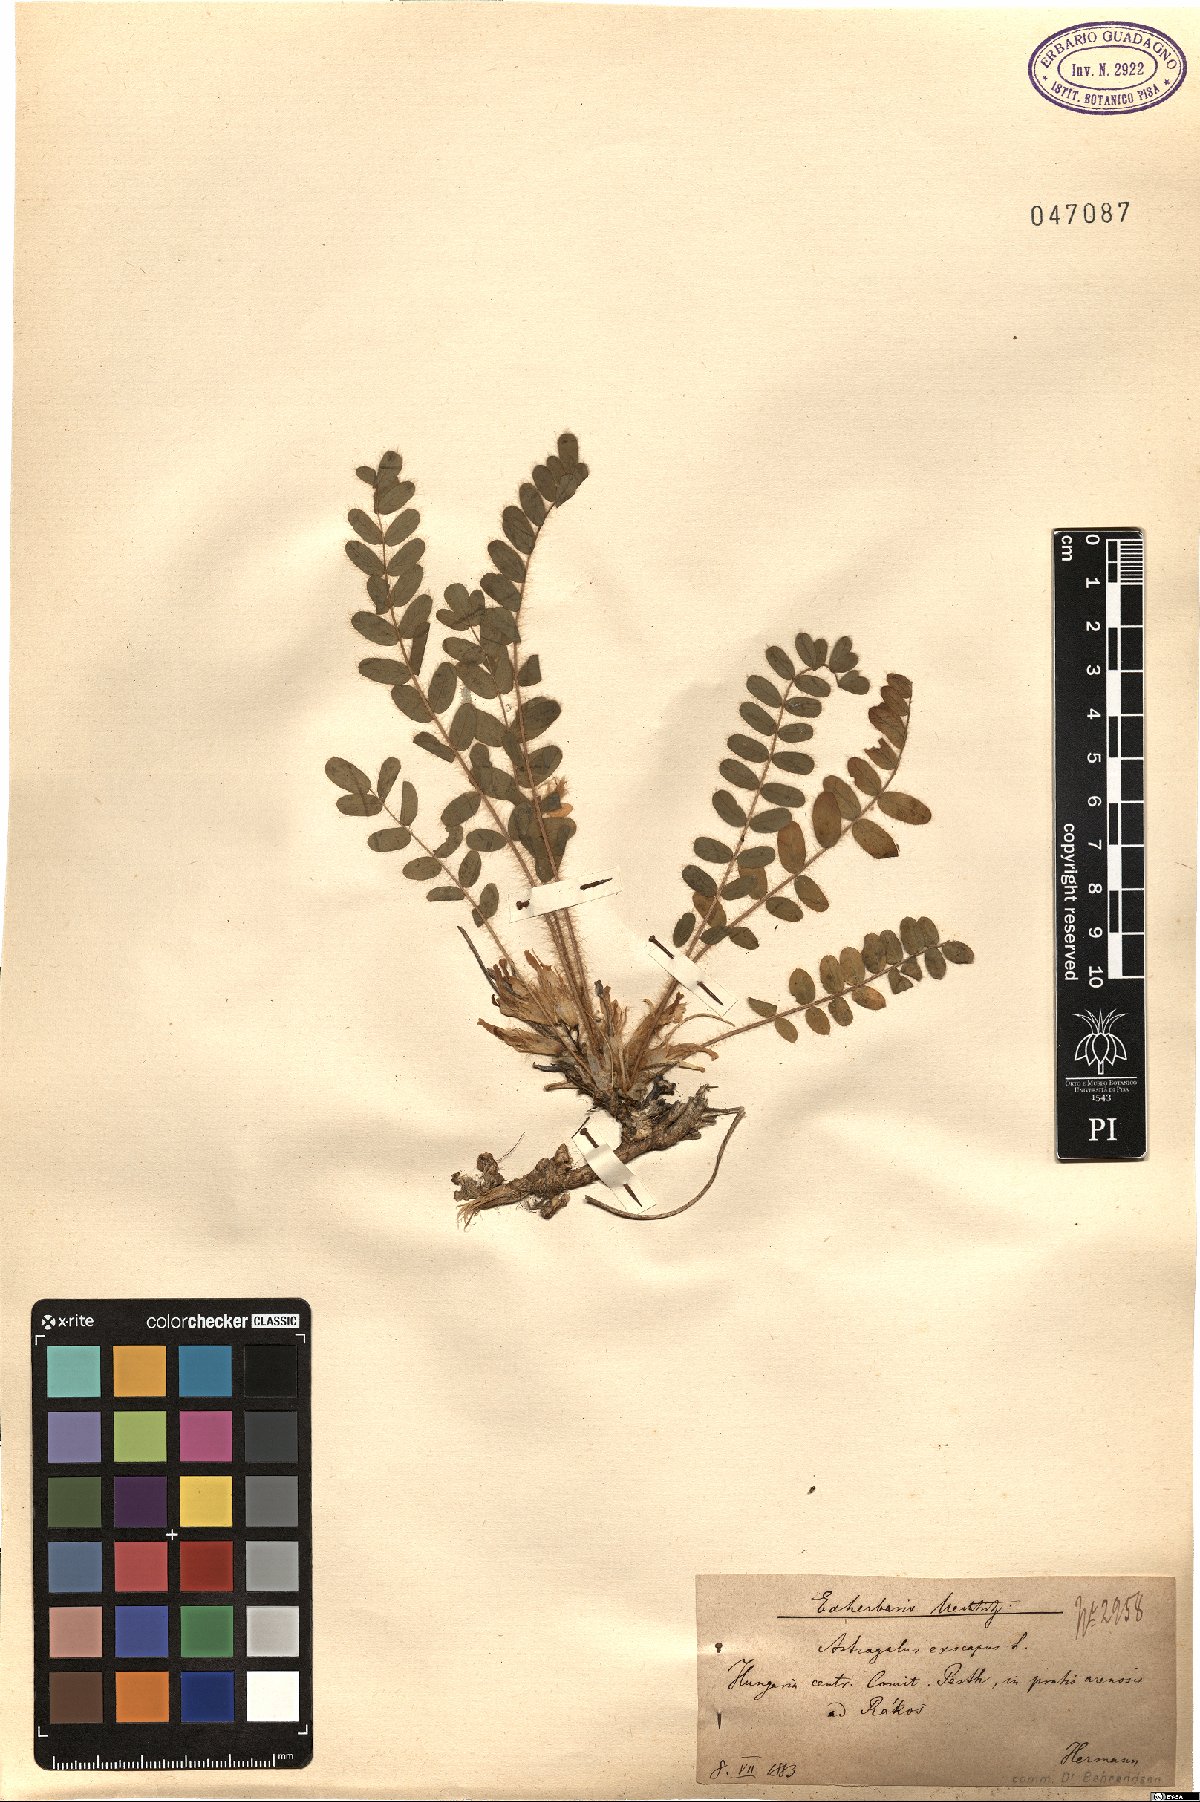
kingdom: Plantae
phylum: Tracheophyta
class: Magnoliopsida
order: Fabales
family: Fabaceae
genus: Astragalus
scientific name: Astragalus exscapus
